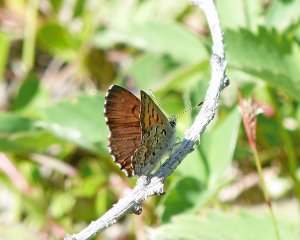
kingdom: Animalia
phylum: Arthropoda
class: Insecta
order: Lepidoptera
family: Lycaenidae
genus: Lycaena
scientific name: Lycaena mariposa
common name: Mariposa Copper
